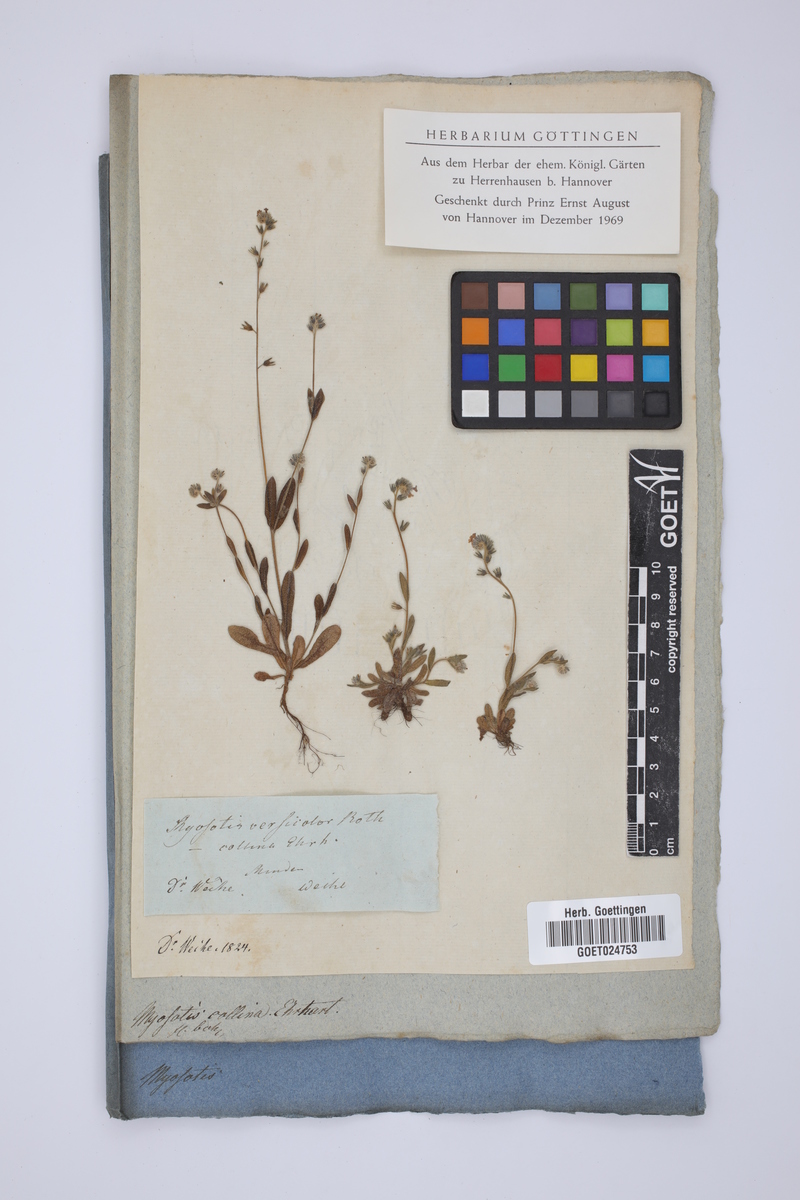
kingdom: Plantae
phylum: Tracheophyta
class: Magnoliopsida
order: Boraginales
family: Boraginaceae
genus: Myosotis
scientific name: Myosotis discolor
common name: Changing forget-me-not
